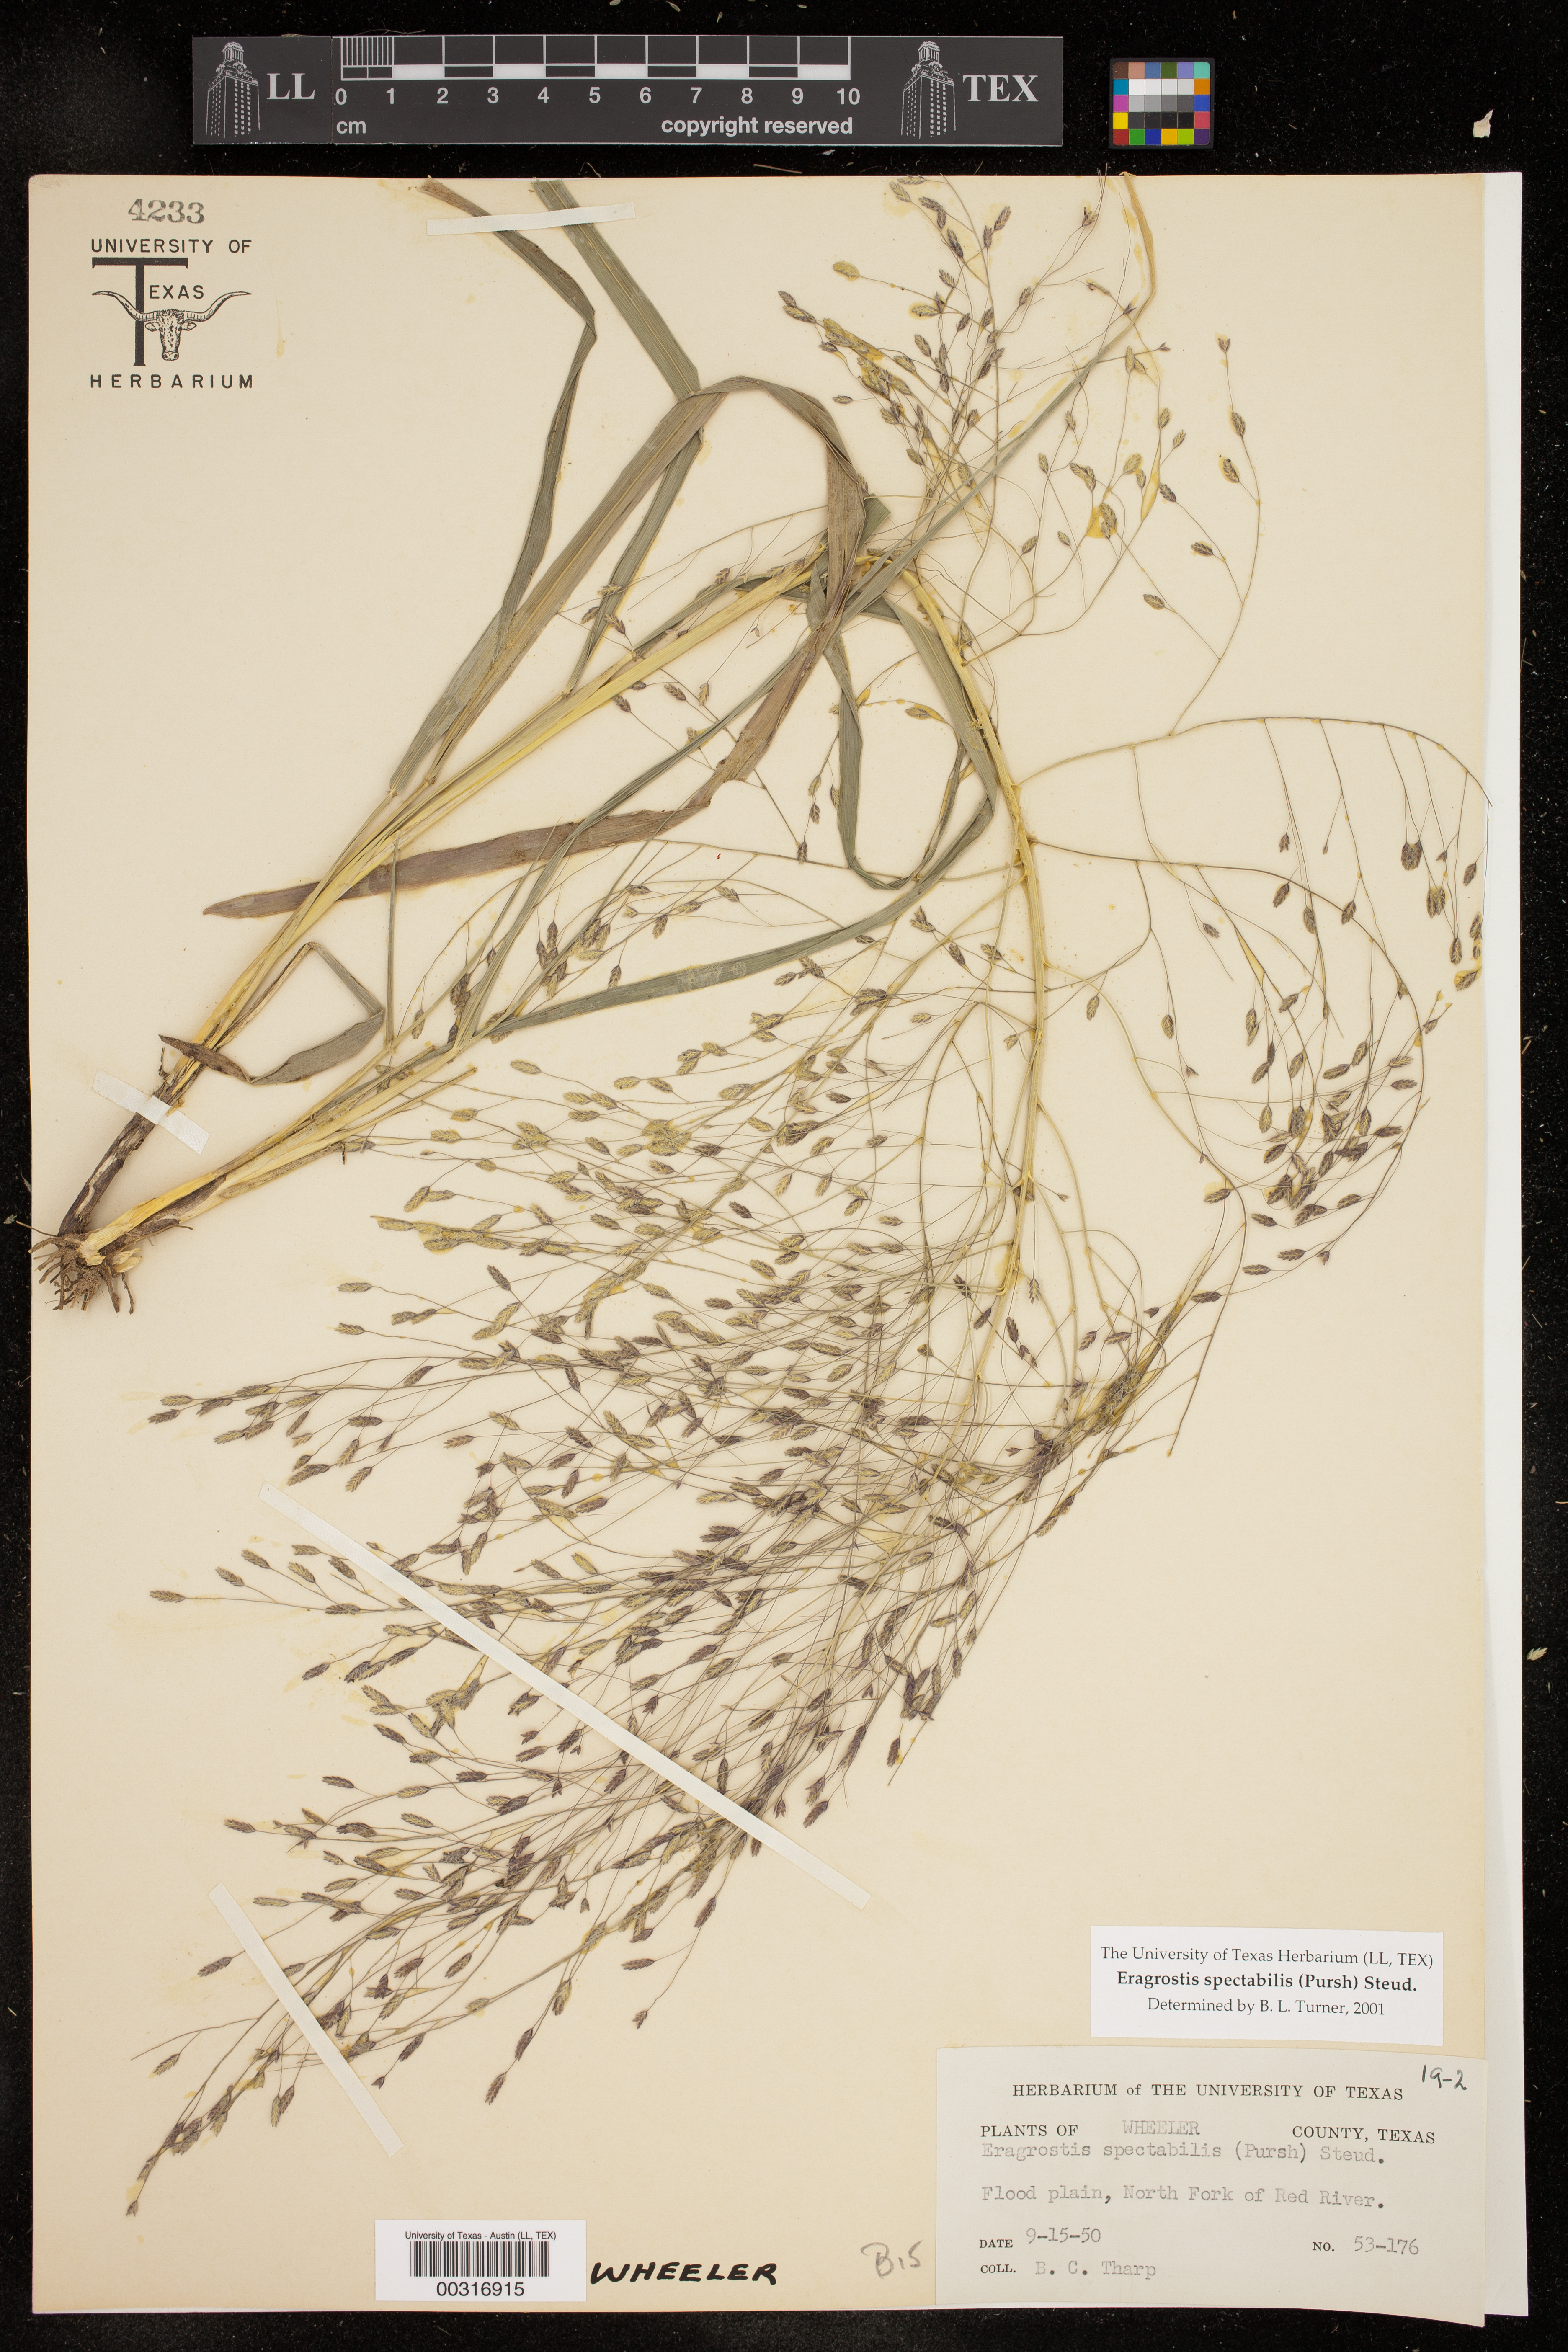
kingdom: Plantae
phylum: Tracheophyta
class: Liliopsida
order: Poales
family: Poaceae
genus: Eragrostis
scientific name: Eragrostis spectabilis
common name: Petticoat-climber
